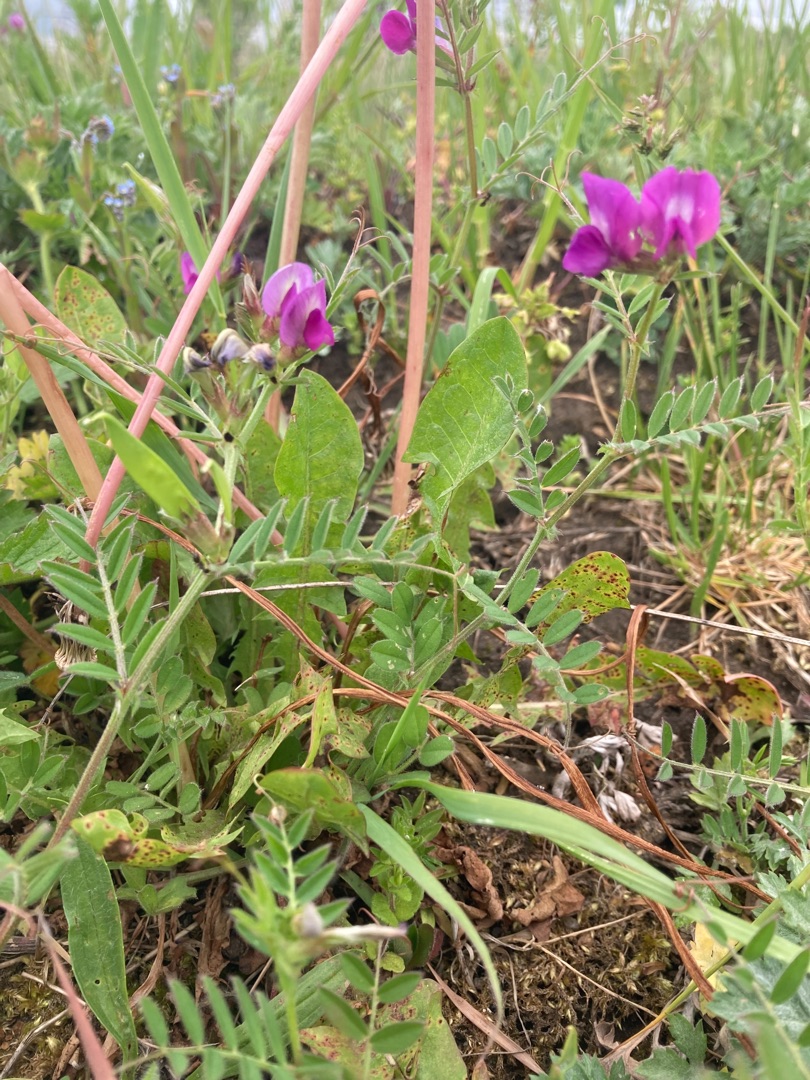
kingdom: Plantae
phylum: Tracheophyta
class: Magnoliopsida
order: Fabales
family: Fabaceae
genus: Vicia
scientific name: Vicia sativa
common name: Ager-vikke
